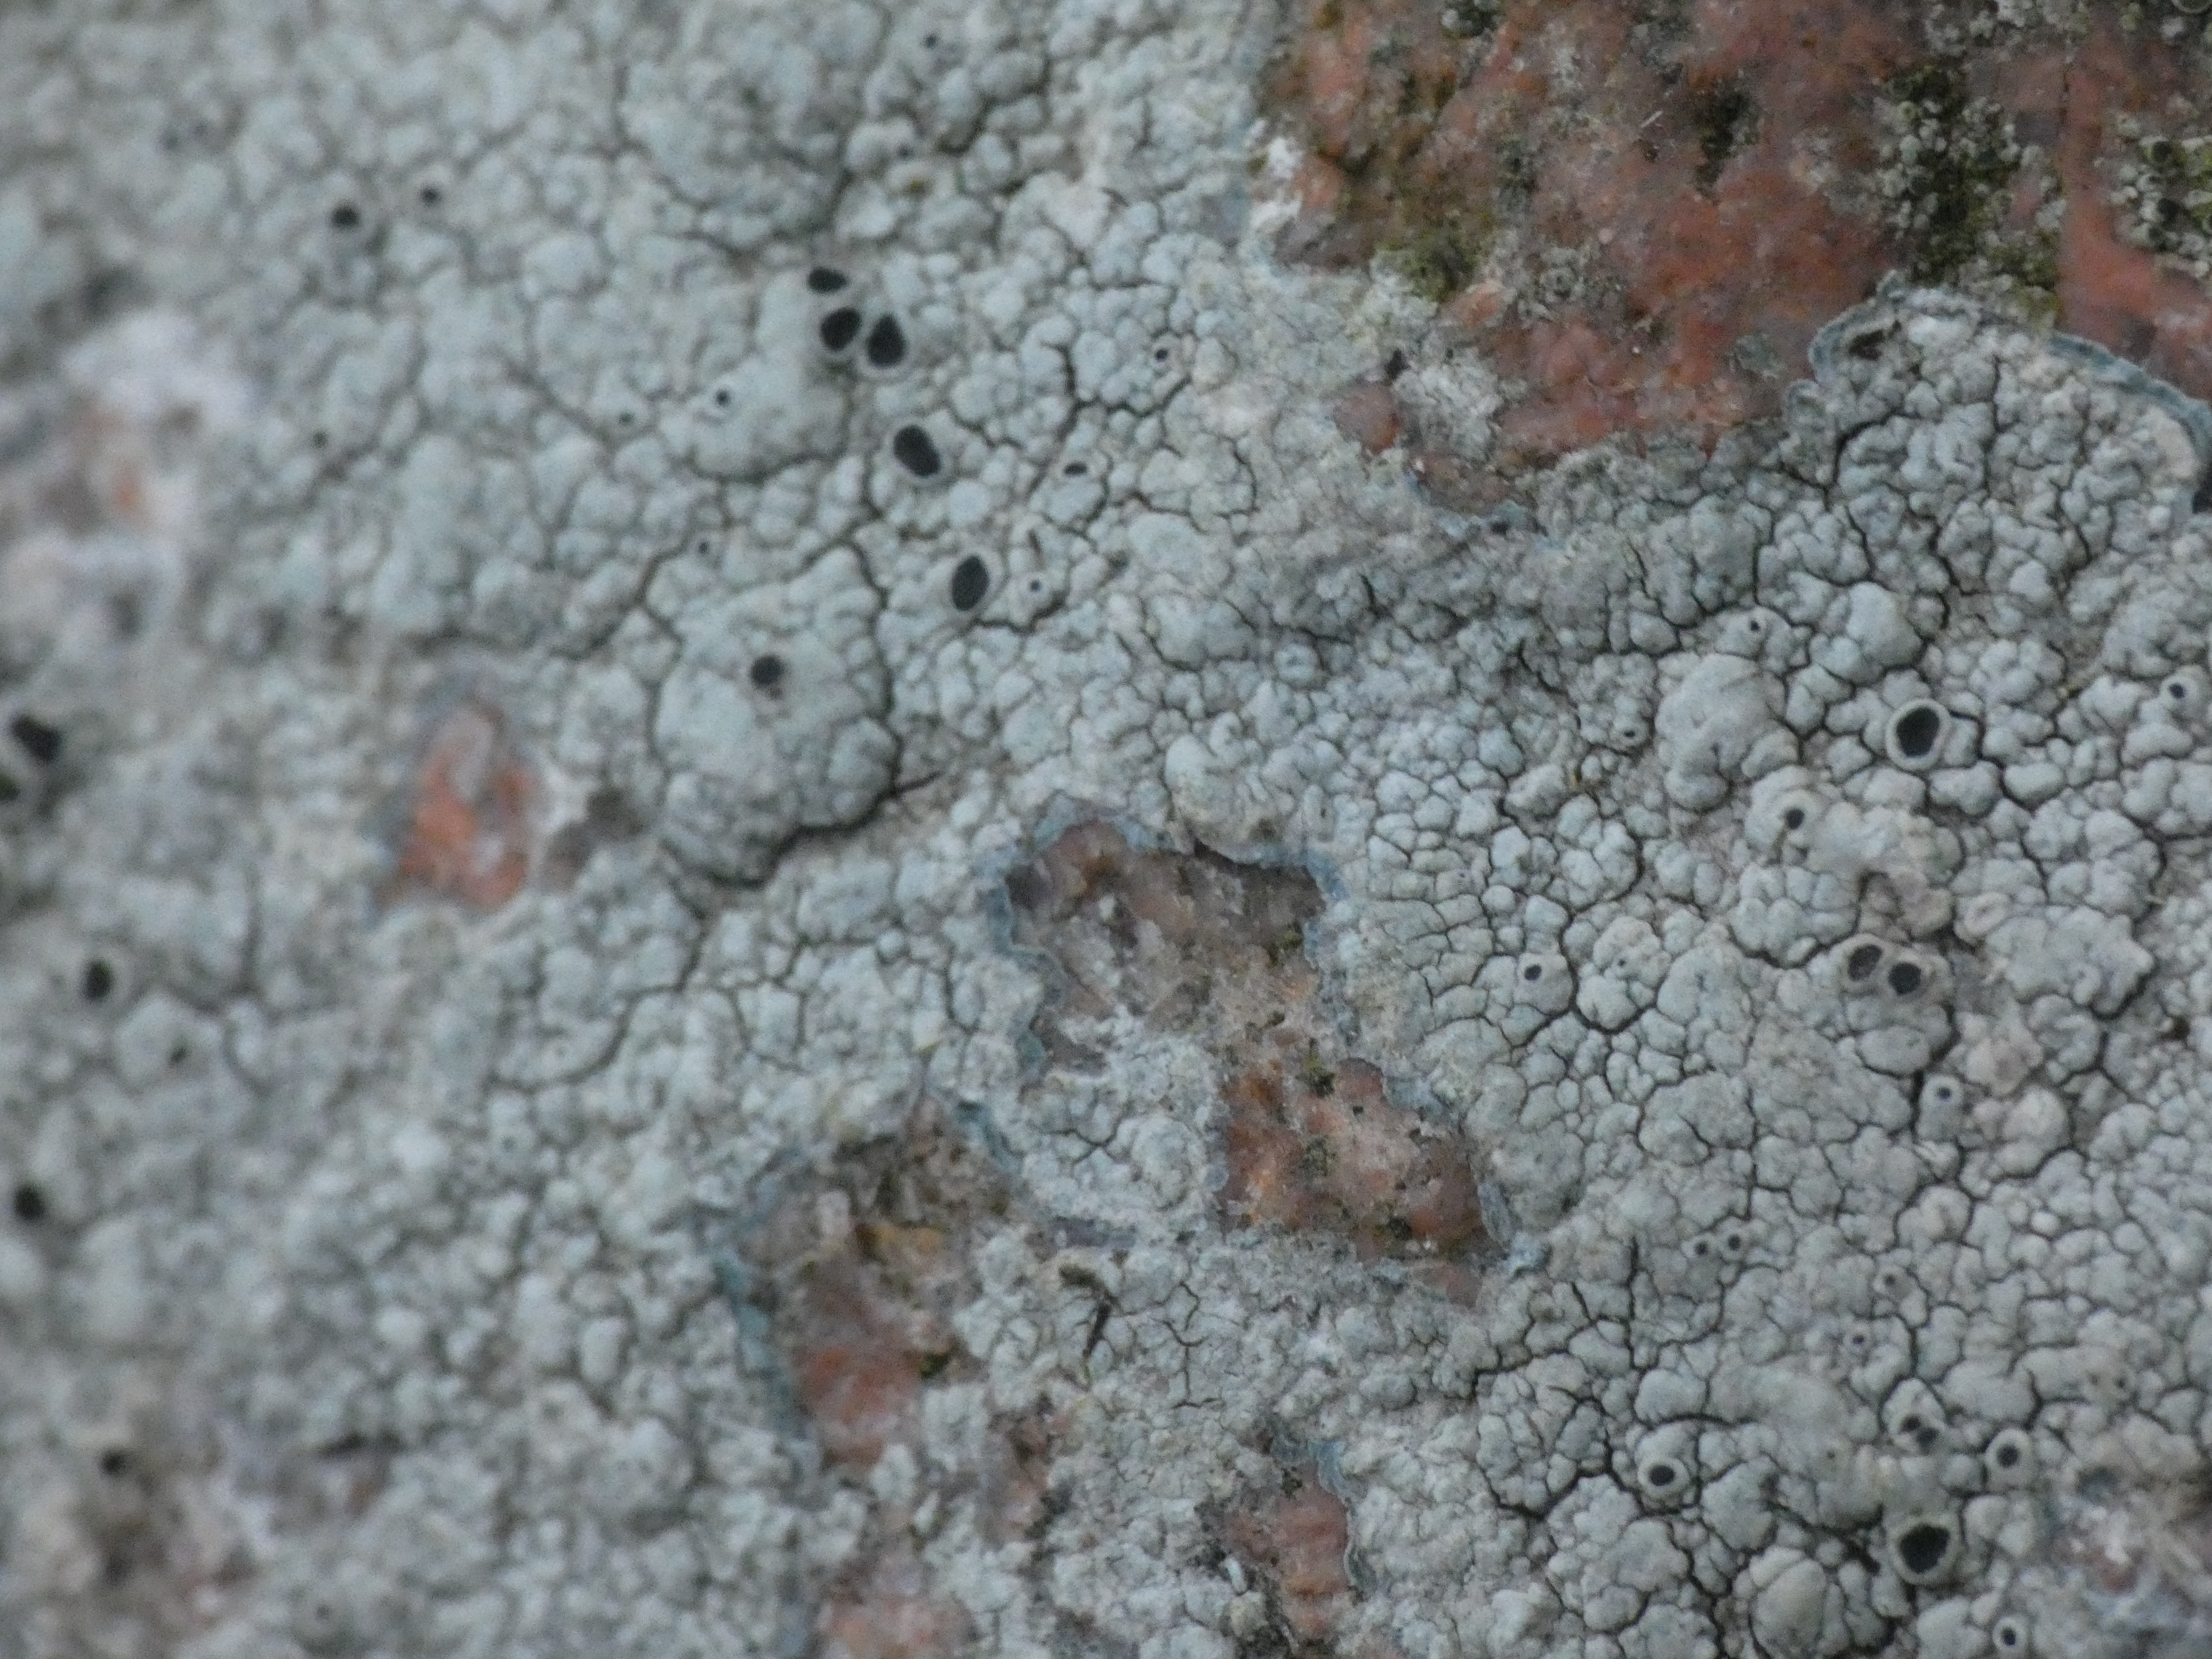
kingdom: Fungi
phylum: Ascomycota
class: Lecanoromycetes
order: Lecanorales
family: Tephromelataceae
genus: Tephromela
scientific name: Tephromela atra
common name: Sortfrugtet kantskivelav
